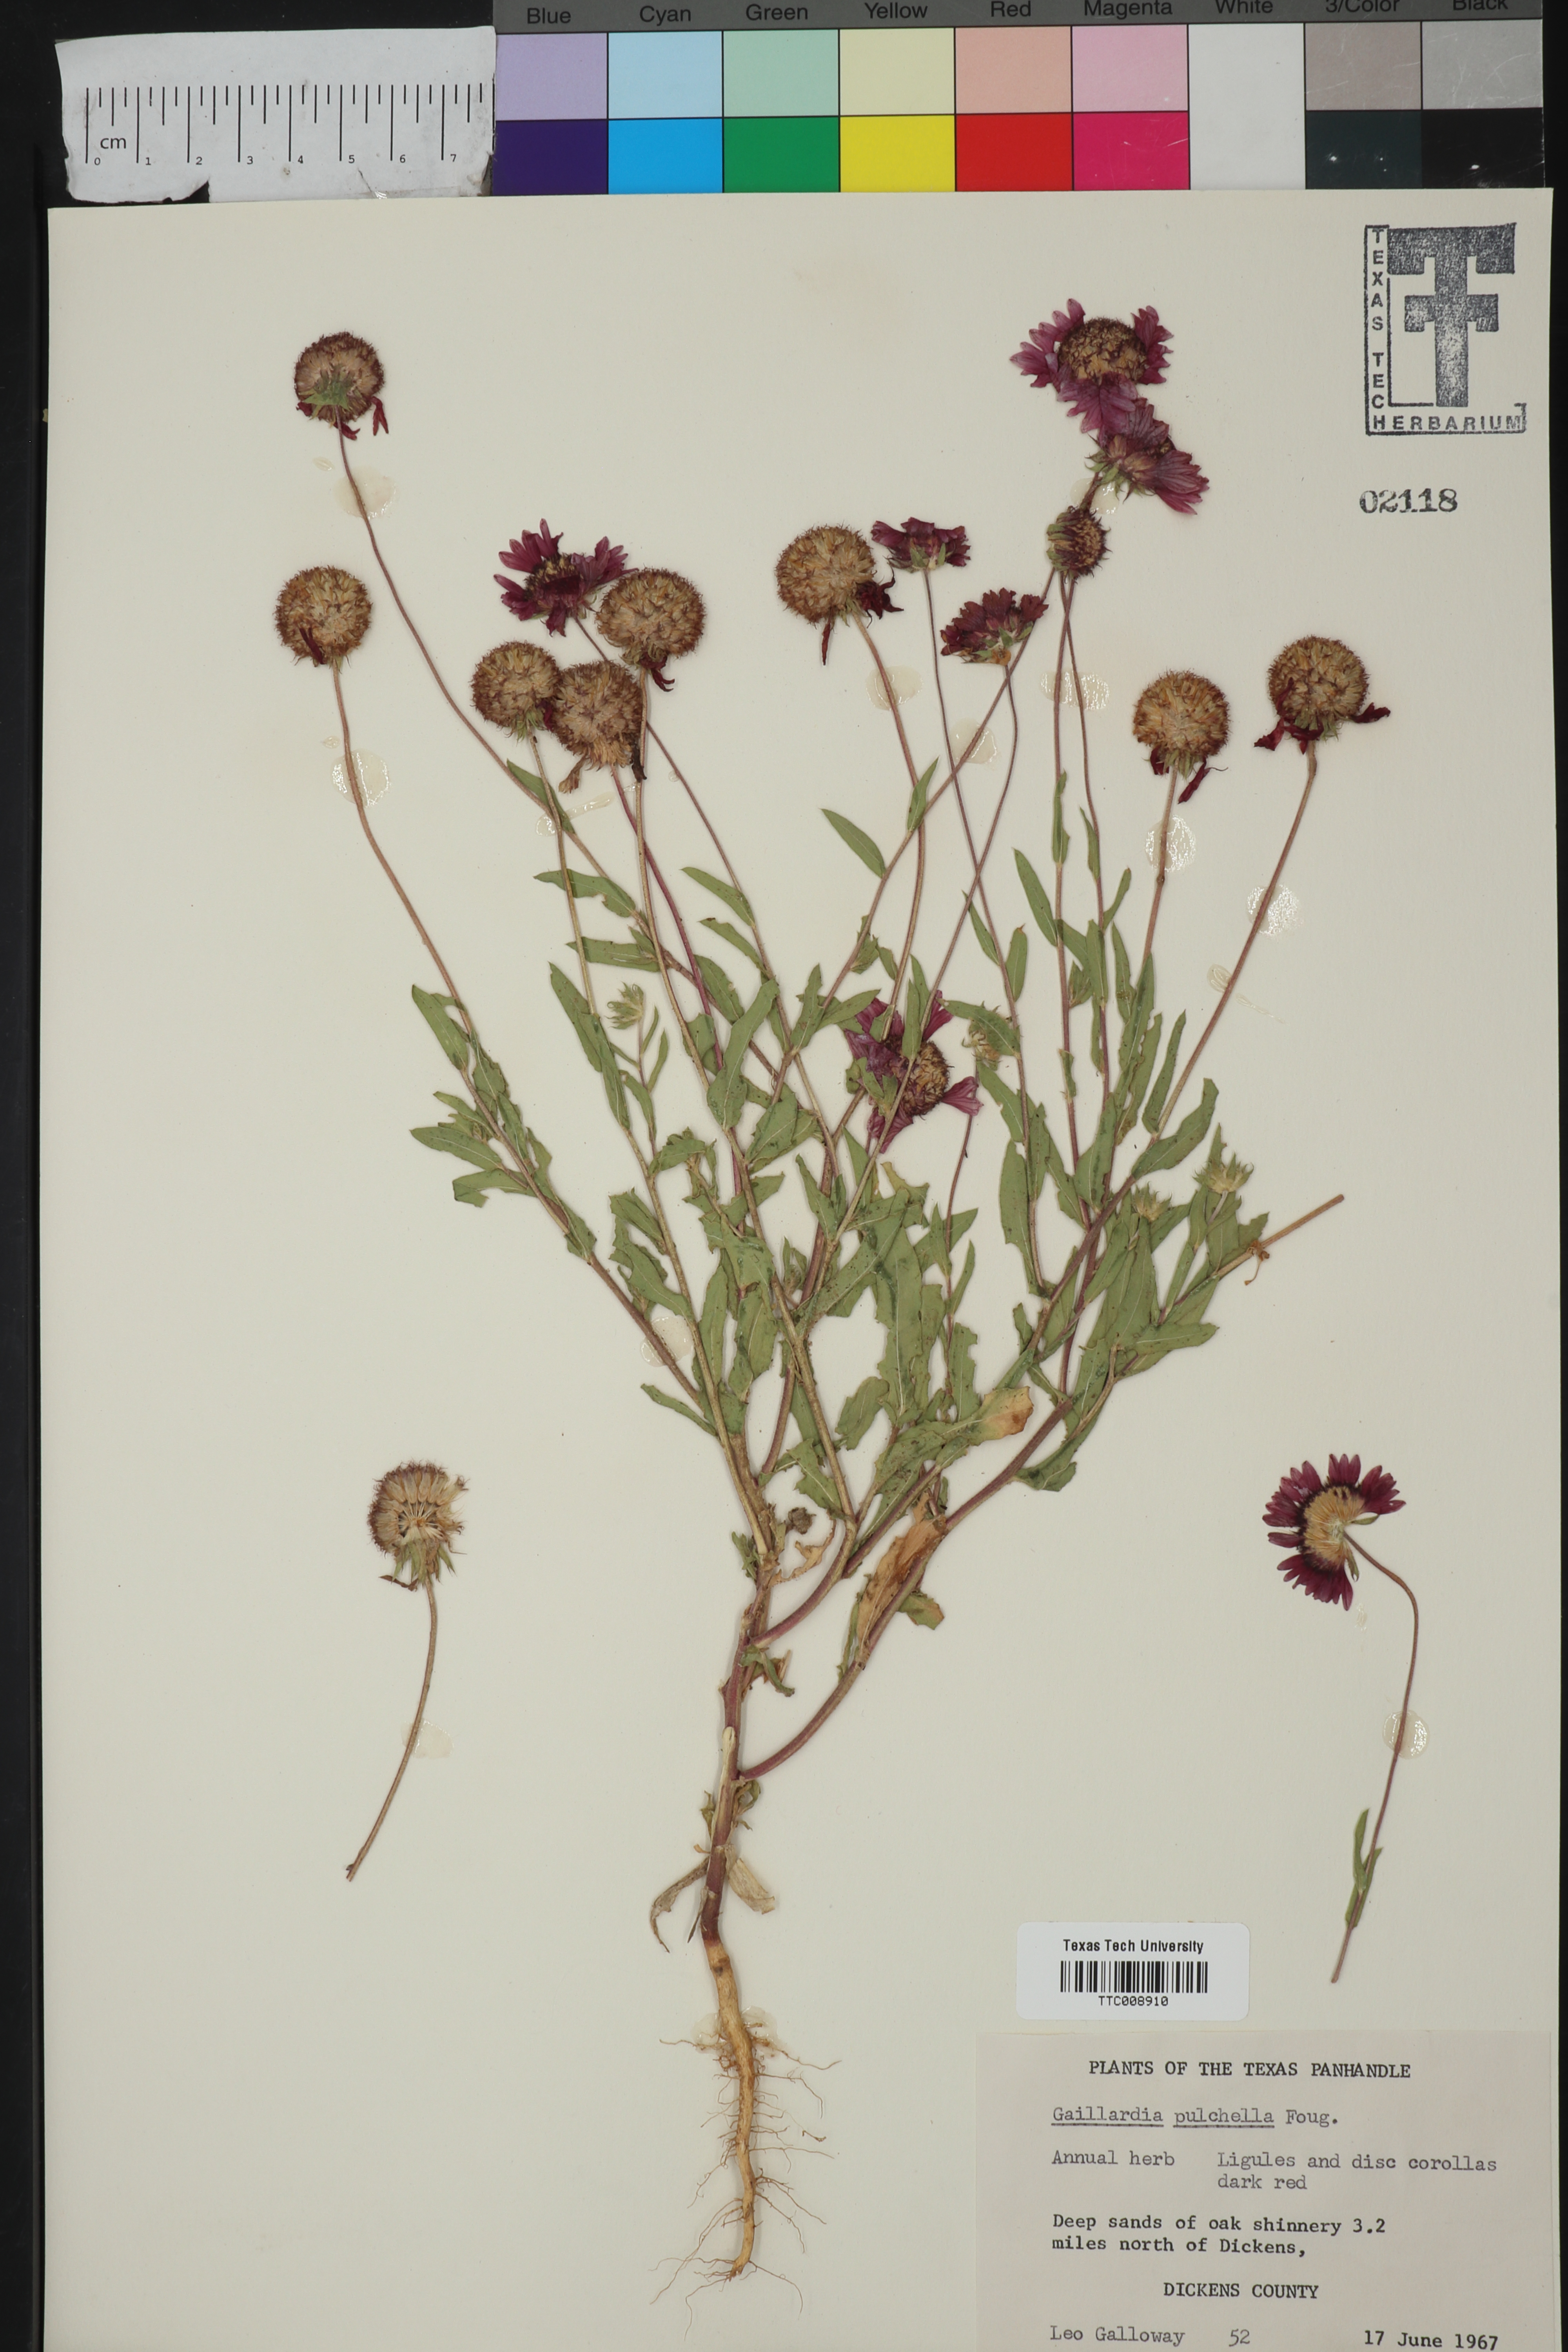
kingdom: Plantae
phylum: Tracheophyta
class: Magnoliopsida
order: Asterales
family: Asteraceae
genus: Gaillardia
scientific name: Gaillardia pulchella
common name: Firewheel
